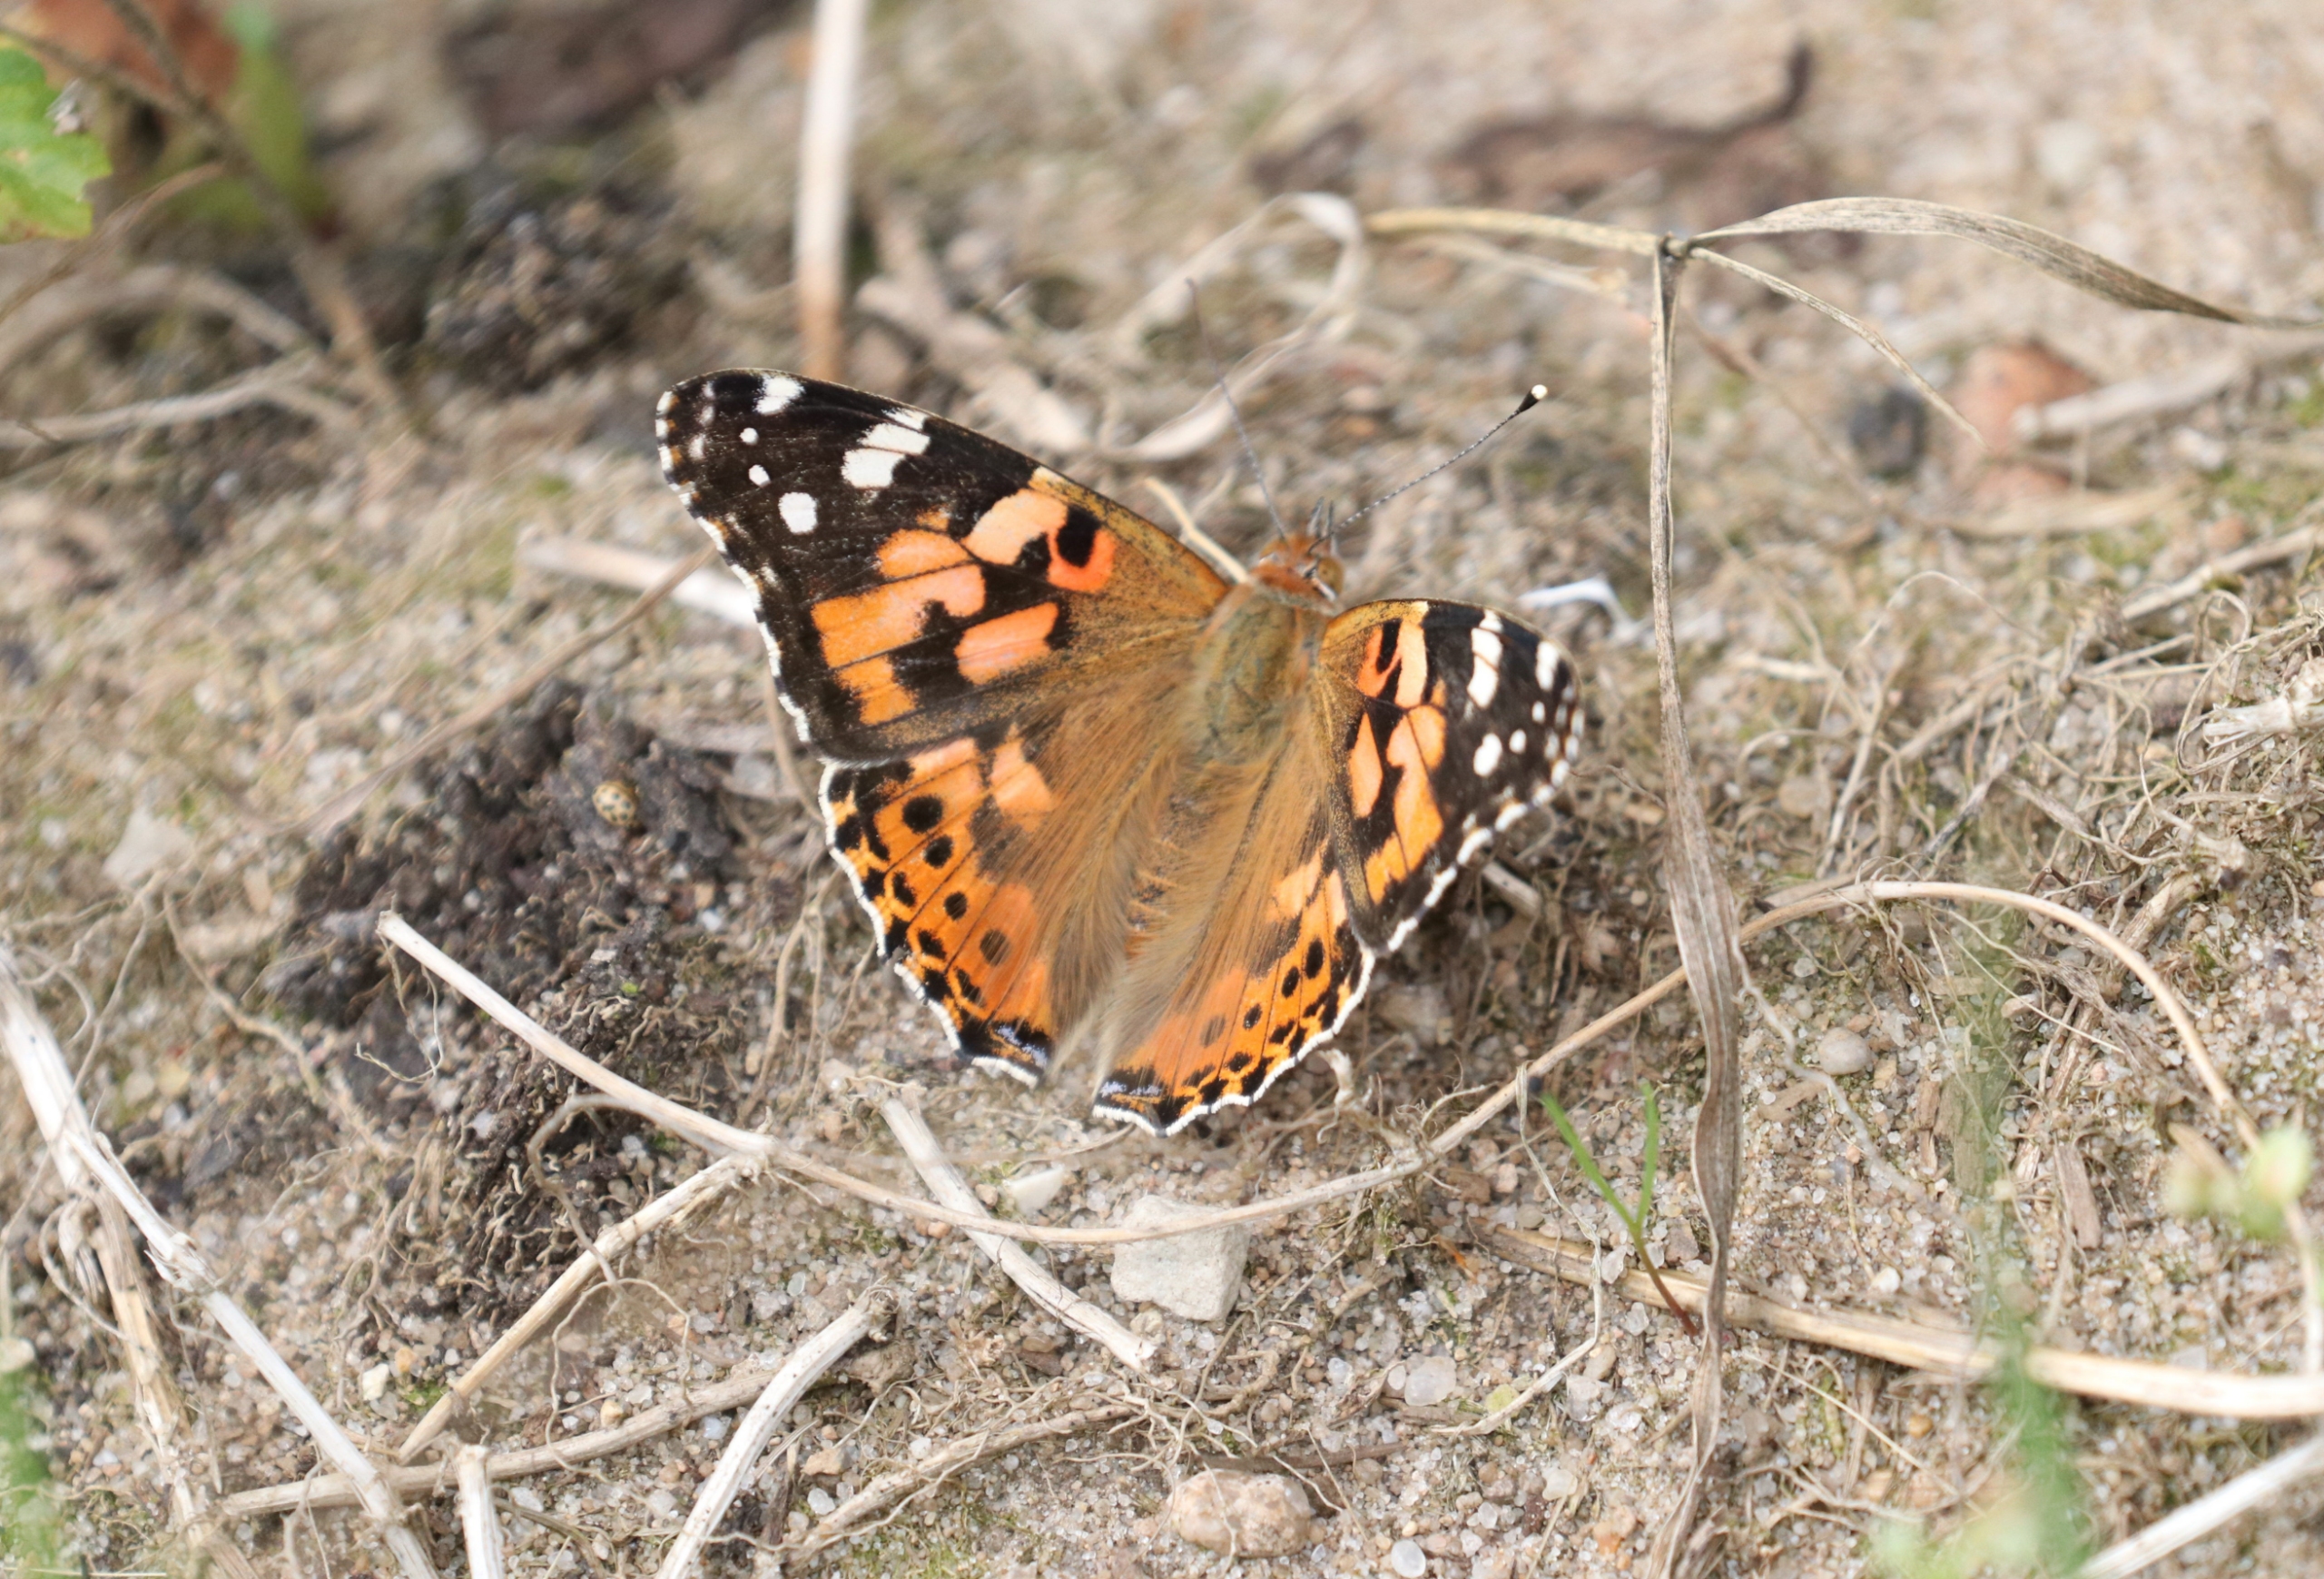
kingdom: Animalia
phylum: Arthropoda
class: Insecta
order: Lepidoptera
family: Nymphalidae
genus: Vanessa
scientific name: Vanessa cardui
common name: Tidselsommerfugl
